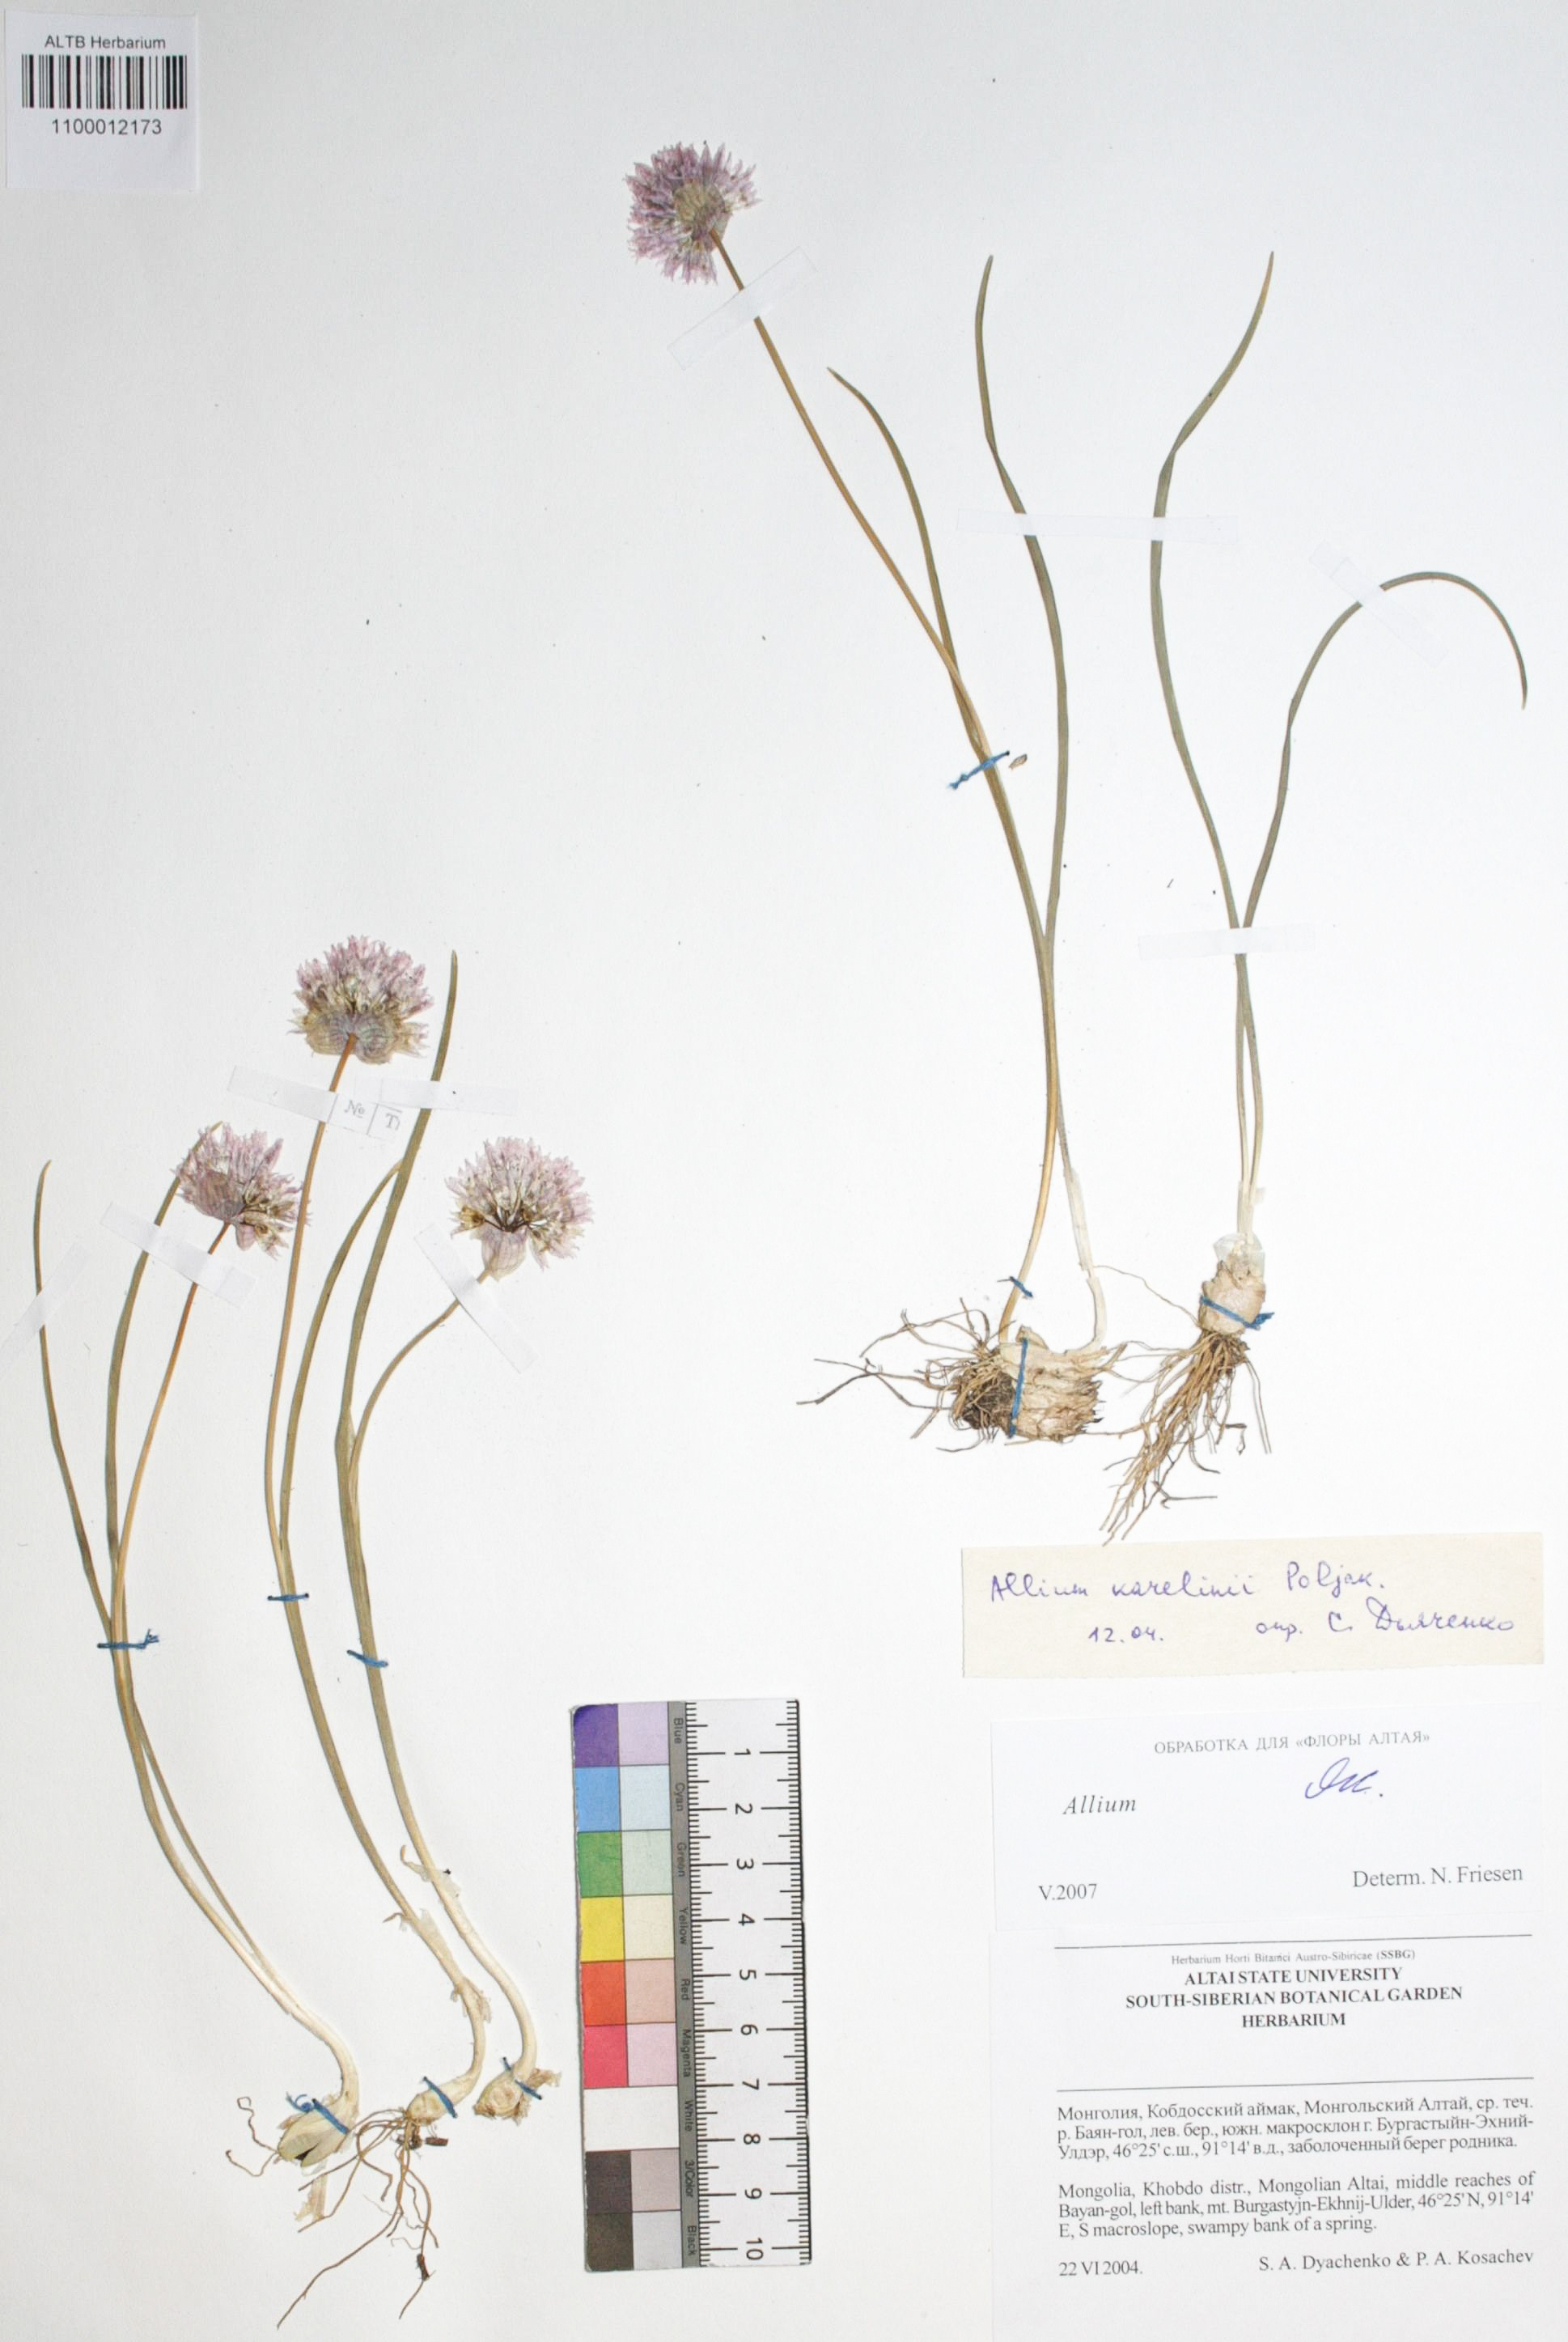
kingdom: Plantae
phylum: Tracheophyta
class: Liliopsida
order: Asparagales
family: Amaryllidaceae
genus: Allium
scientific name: Allium karelinii
